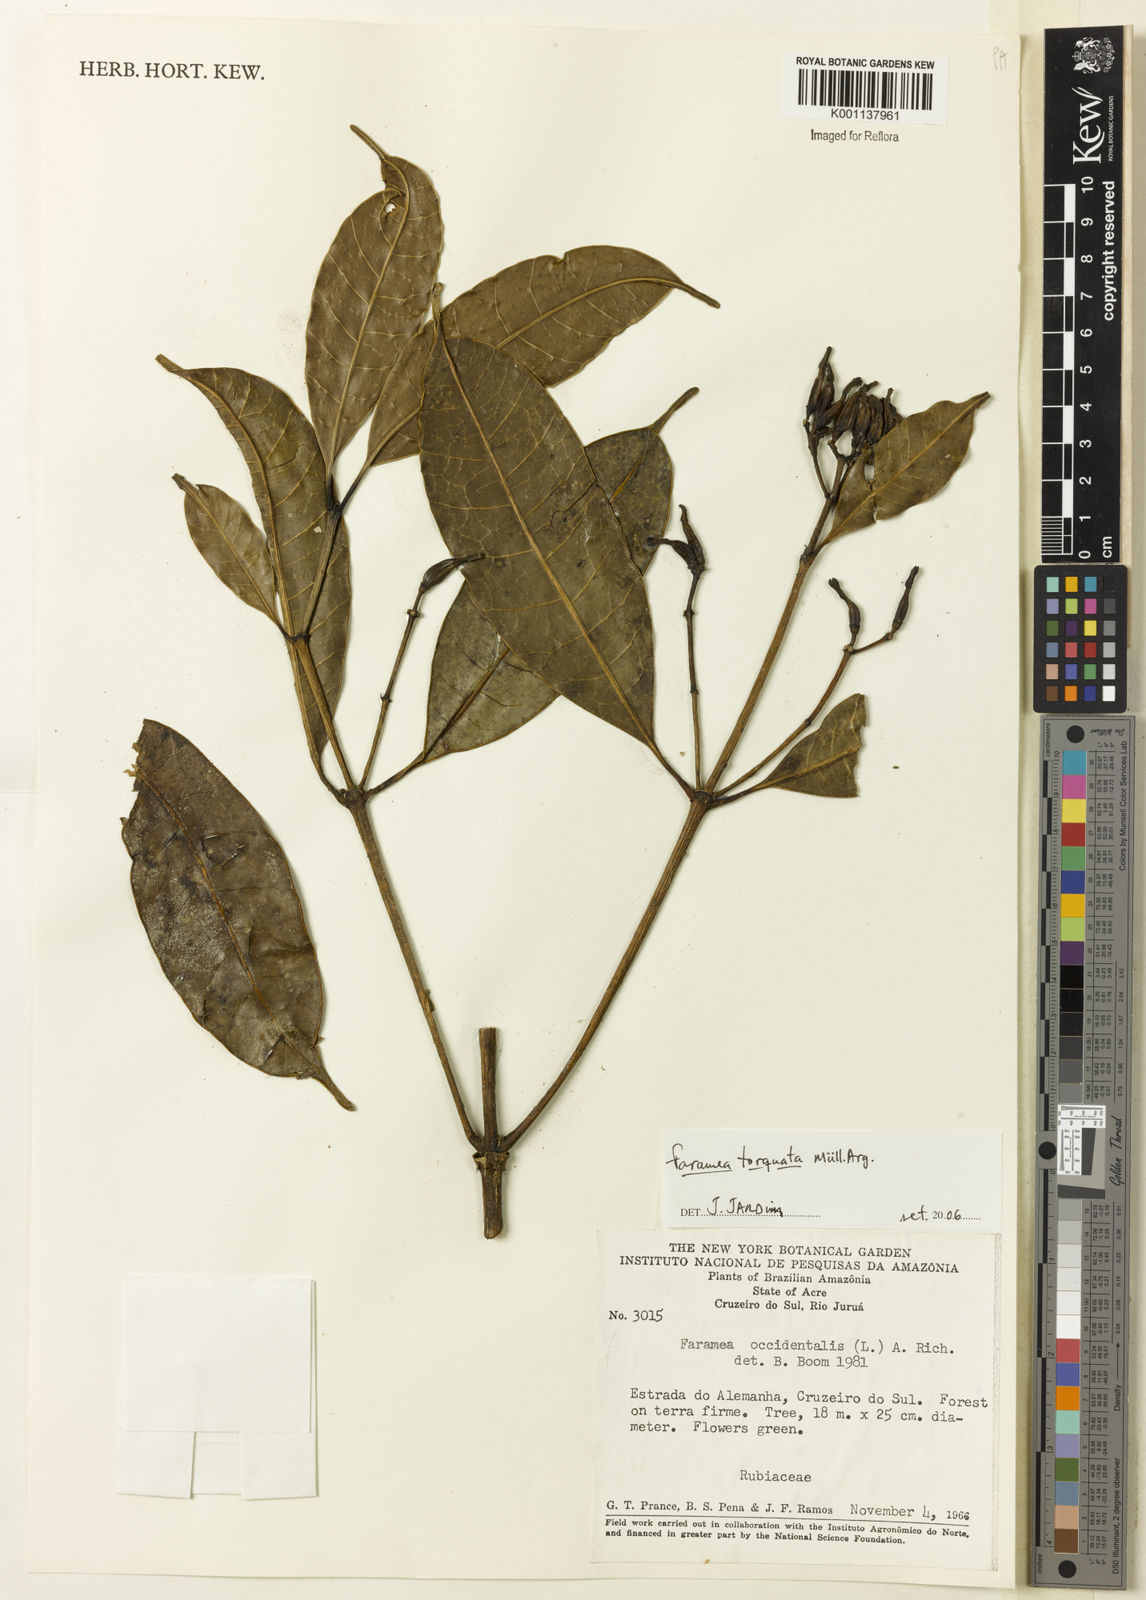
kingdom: Plantae
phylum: Tracheophyta
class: Magnoliopsida
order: Gentianales
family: Rubiaceae
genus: Faramea
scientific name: Faramea
